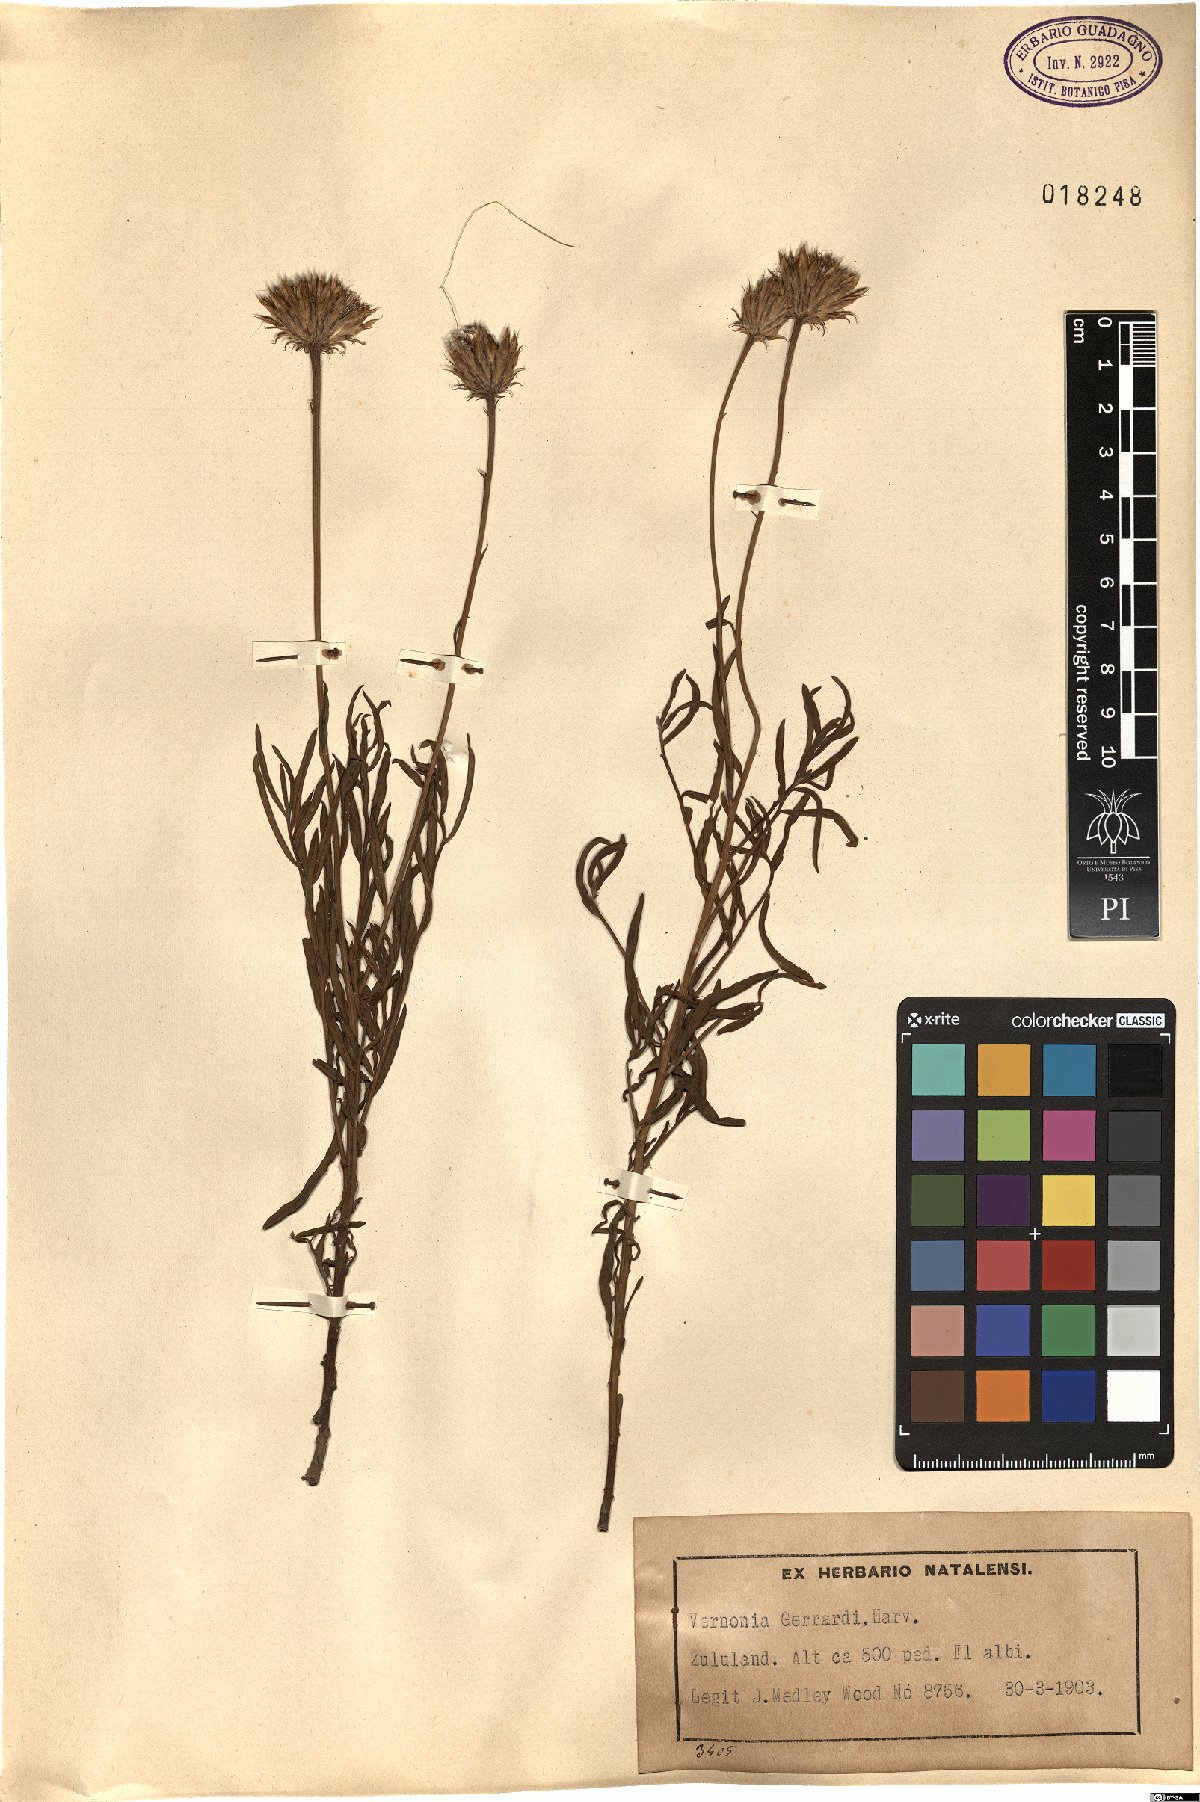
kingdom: Plantae
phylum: Tracheophyta
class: Magnoliopsida
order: Asterales
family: Asteraceae
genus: Parapolydora
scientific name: Parapolydora gerrardii
